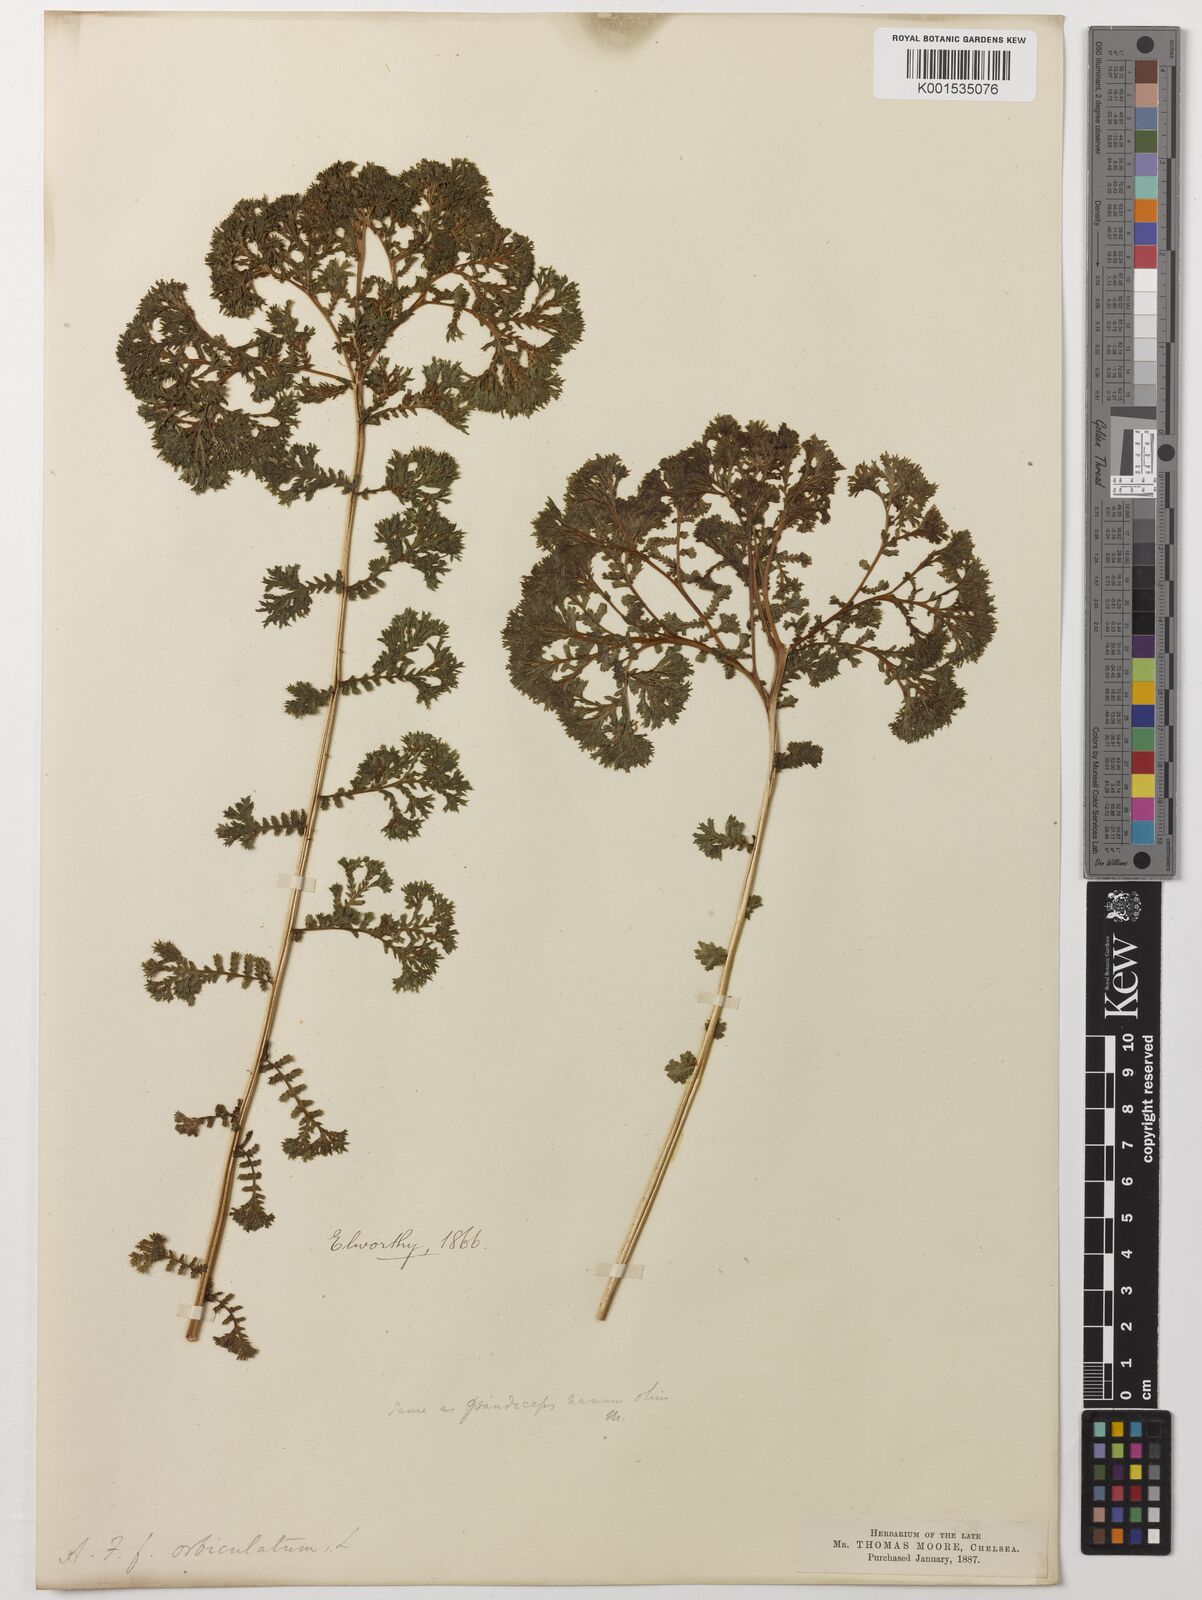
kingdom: Plantae
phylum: Tracheophyta
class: Polypodiopsida
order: Polypodiales
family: Athyriaceae
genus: Athyrium
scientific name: Athyrium filix-femina
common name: Lady fern
